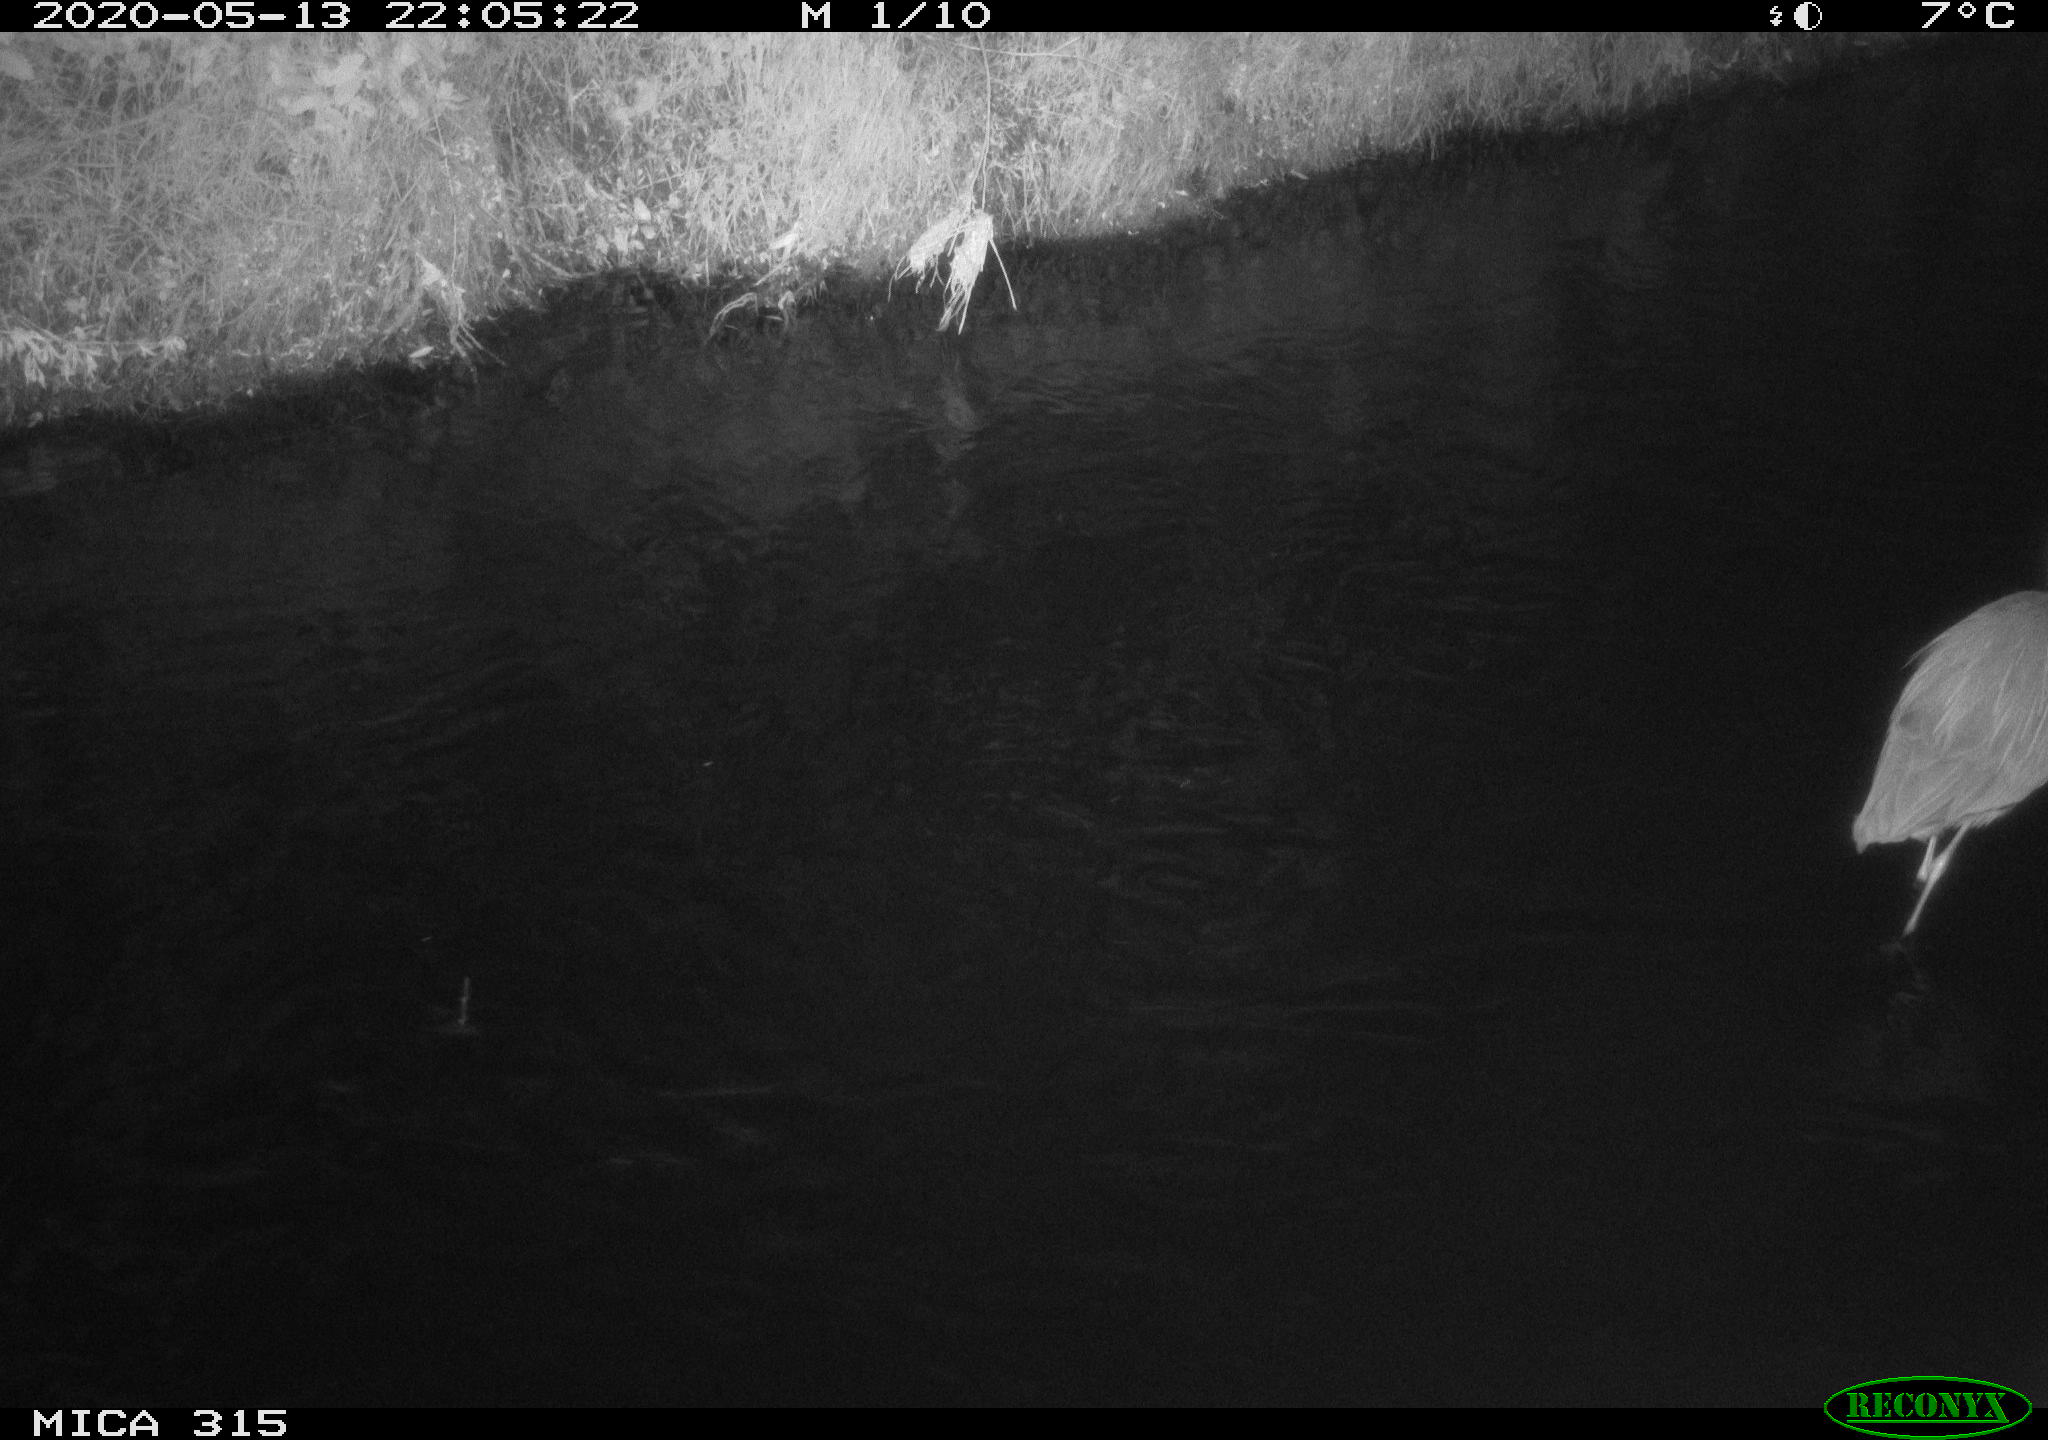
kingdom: Animalia
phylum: Chordata
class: Aves
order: Pelecaniformes
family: Ardeidae
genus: Ardea
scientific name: Ardea cinerea
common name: Grey heron
